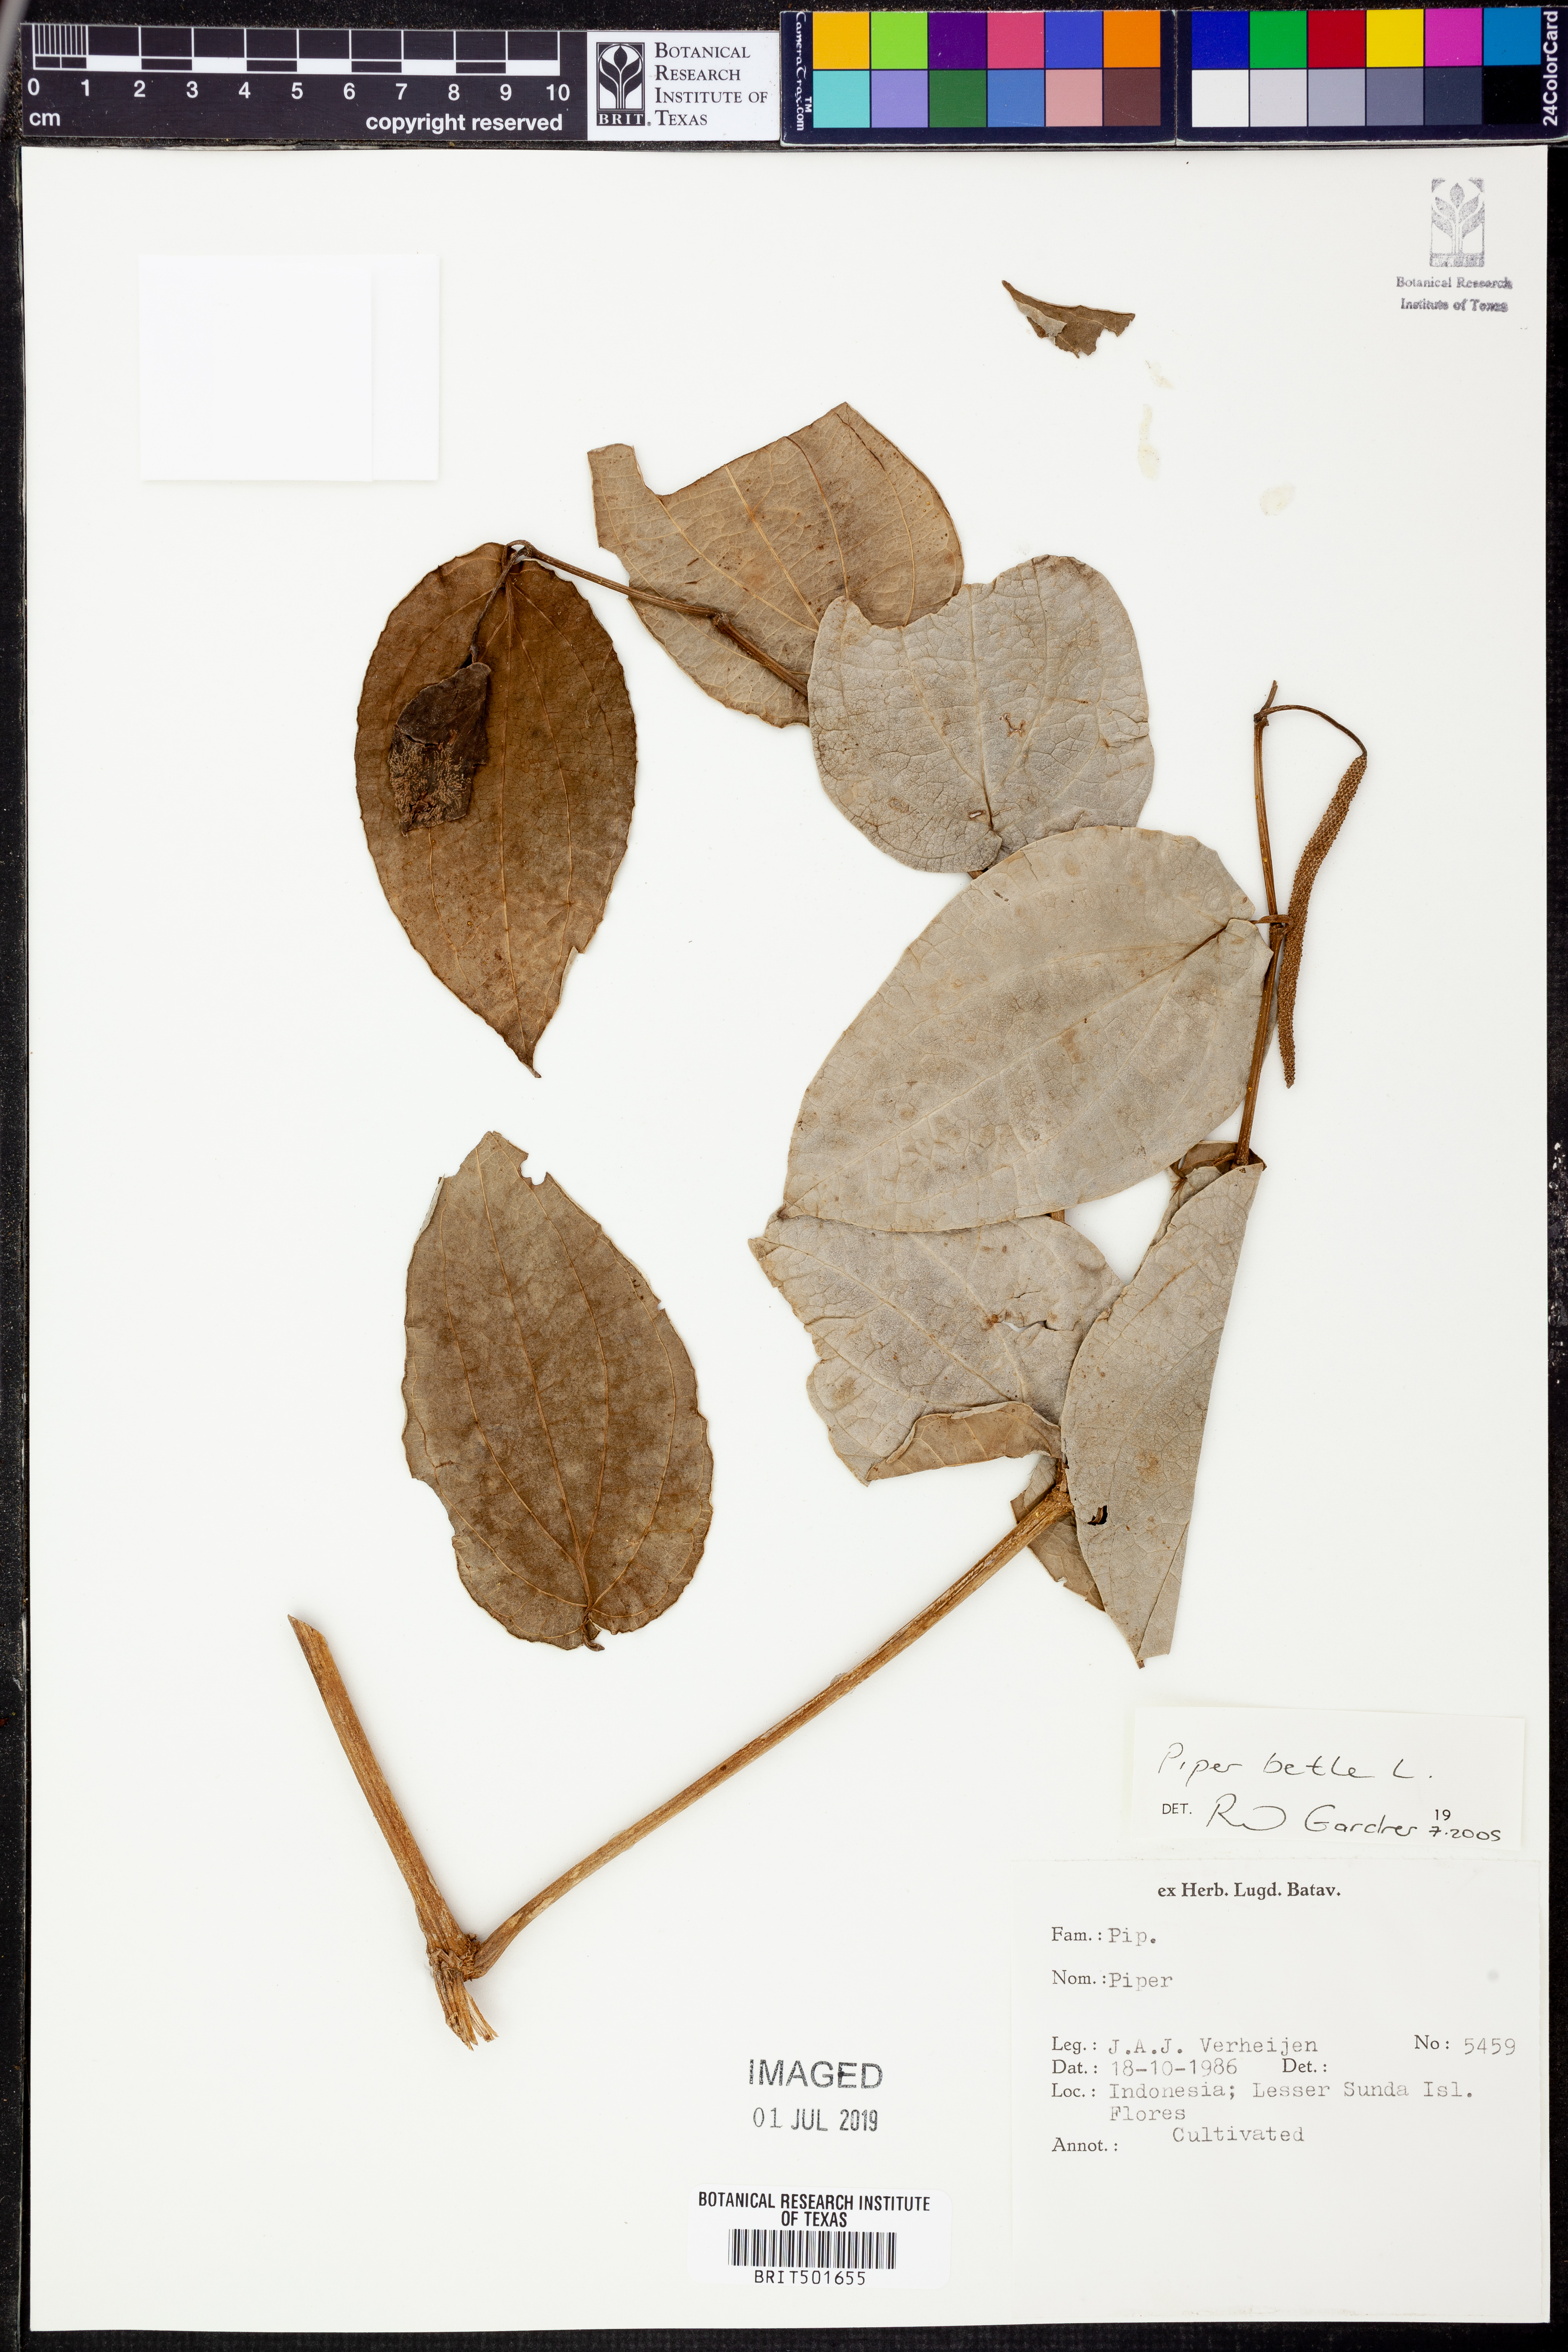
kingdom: Plantae
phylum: Tracheophyta
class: Magnoliopsida
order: Piperales
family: Piperaceae
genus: Piper
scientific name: Piper betle
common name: Betel pepper
